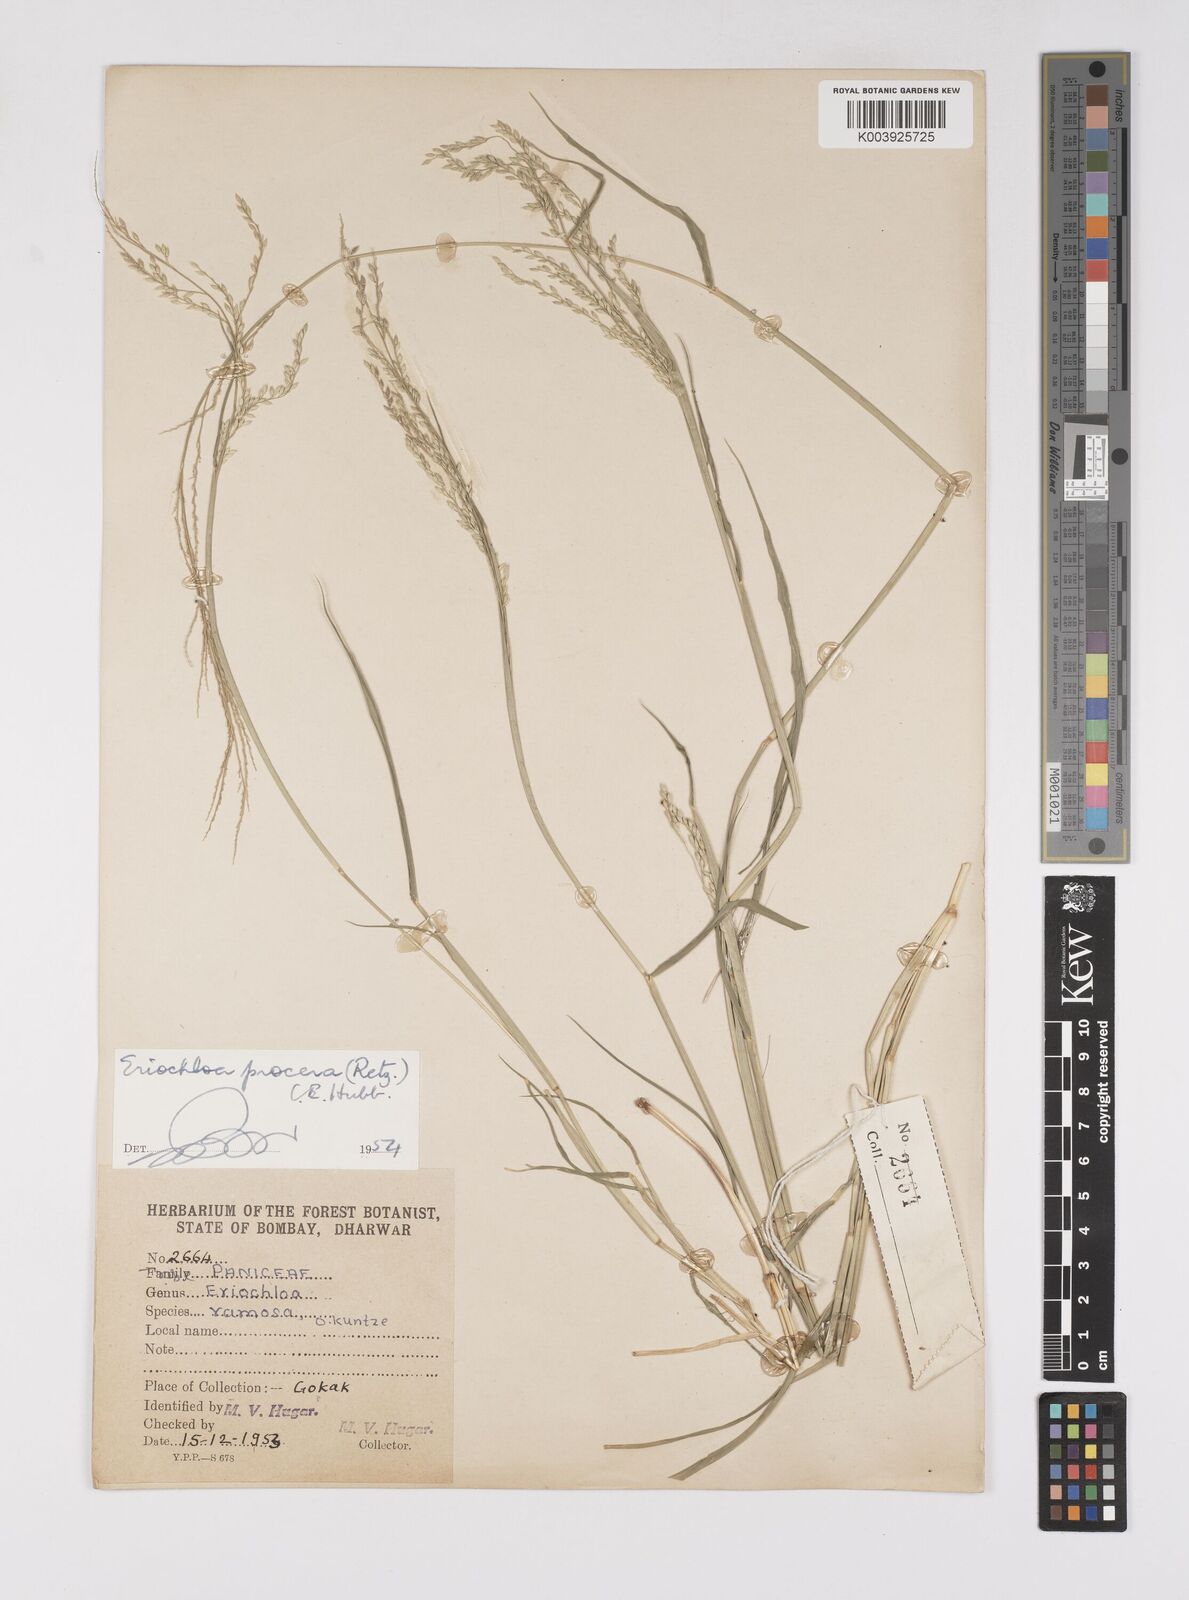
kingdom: Plantae
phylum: Tracheophyta
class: Liliopsida
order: Poales
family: Poaceae
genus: Eriochloa
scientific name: Eriochloa procera
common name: Spring grass
